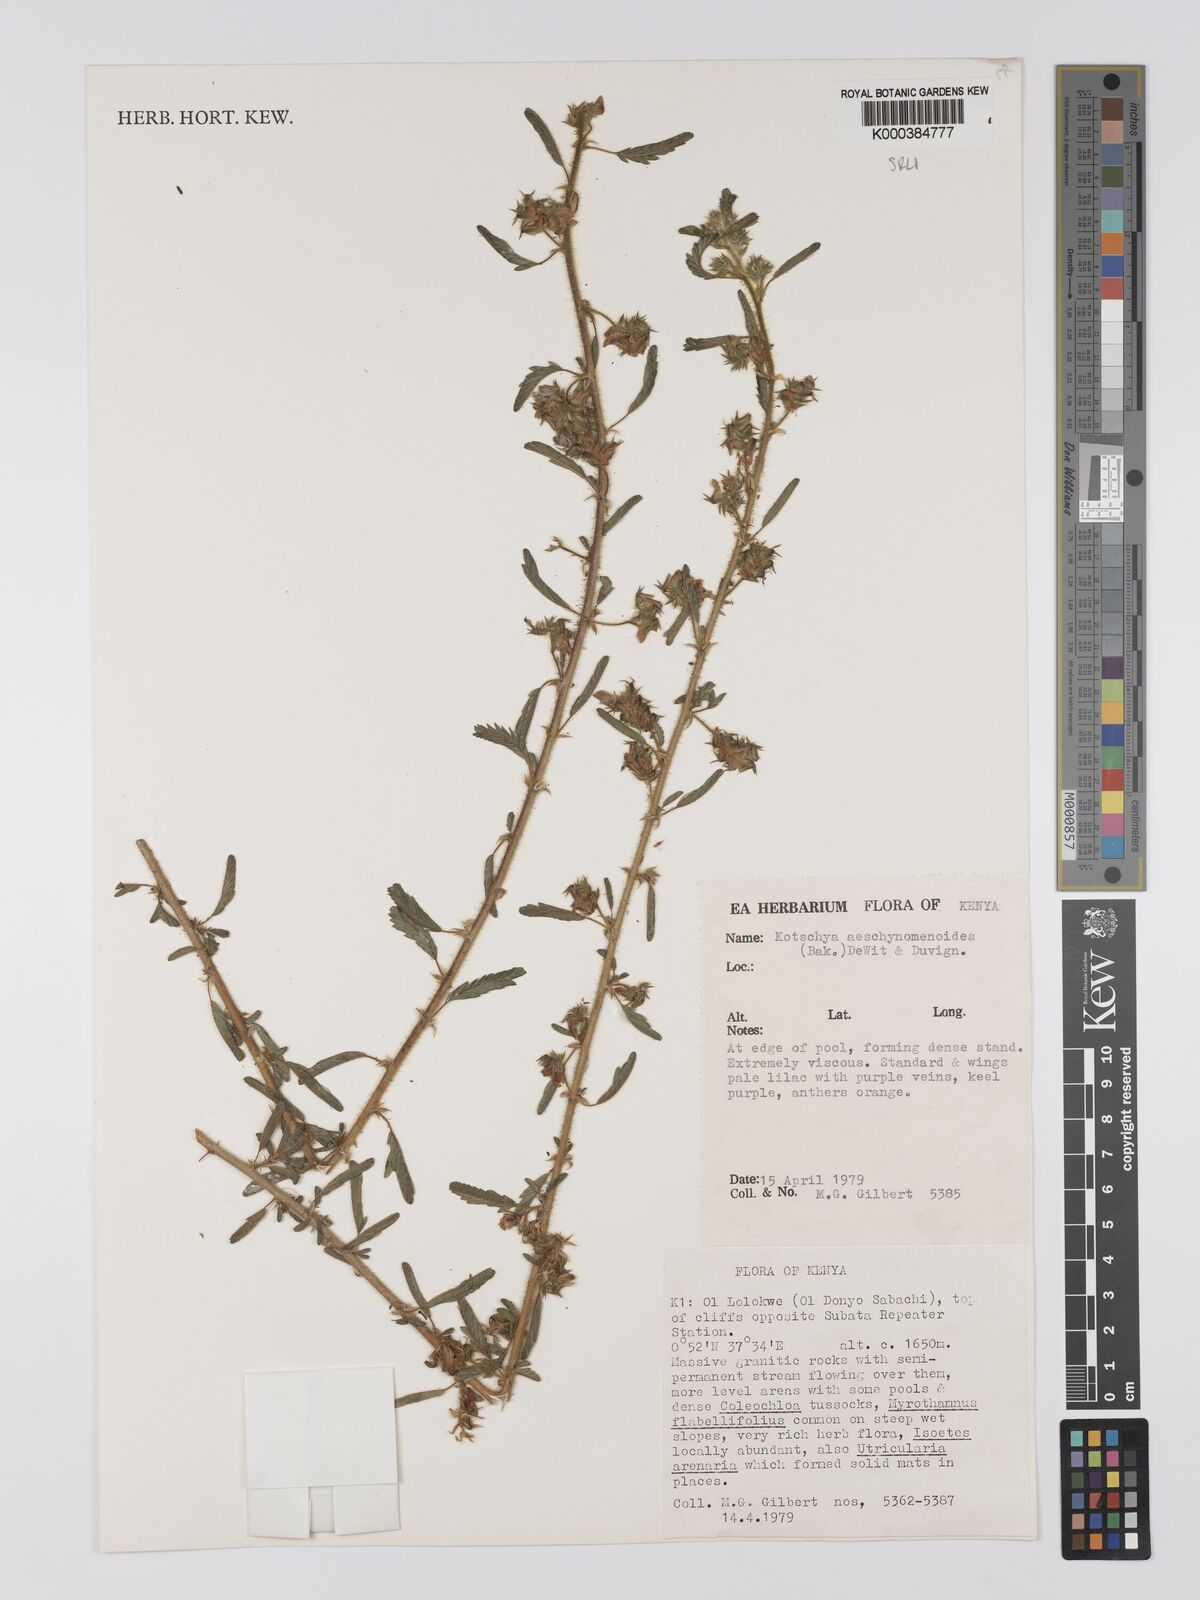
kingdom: Plantae
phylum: Tracheophyta
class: Magnoliopsida
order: Fabales
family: Fabaceae
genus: Kotschya
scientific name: Kotschya aeschynomenoides
